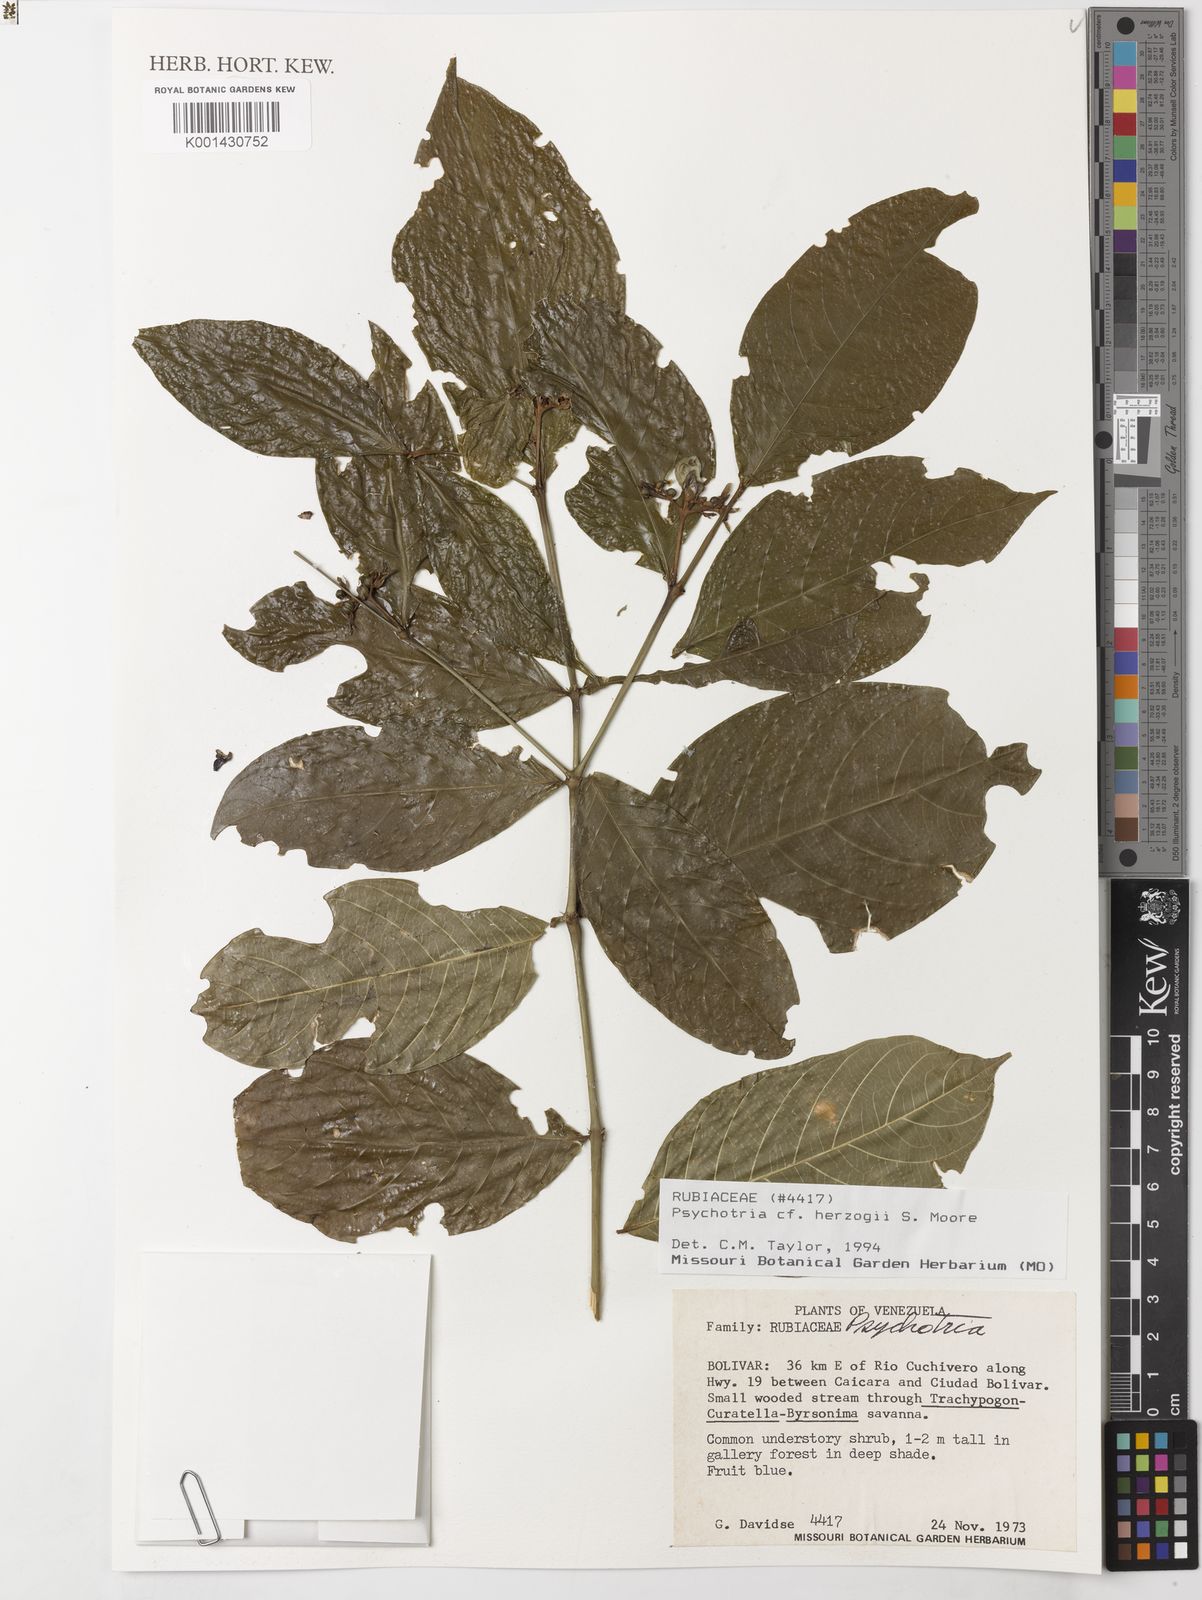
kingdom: Plantae
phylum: Tracheophyta
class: Magnoliopsida
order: Gentianales
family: Rubiaceae
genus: Psychotria
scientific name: Psychotria herzogii
